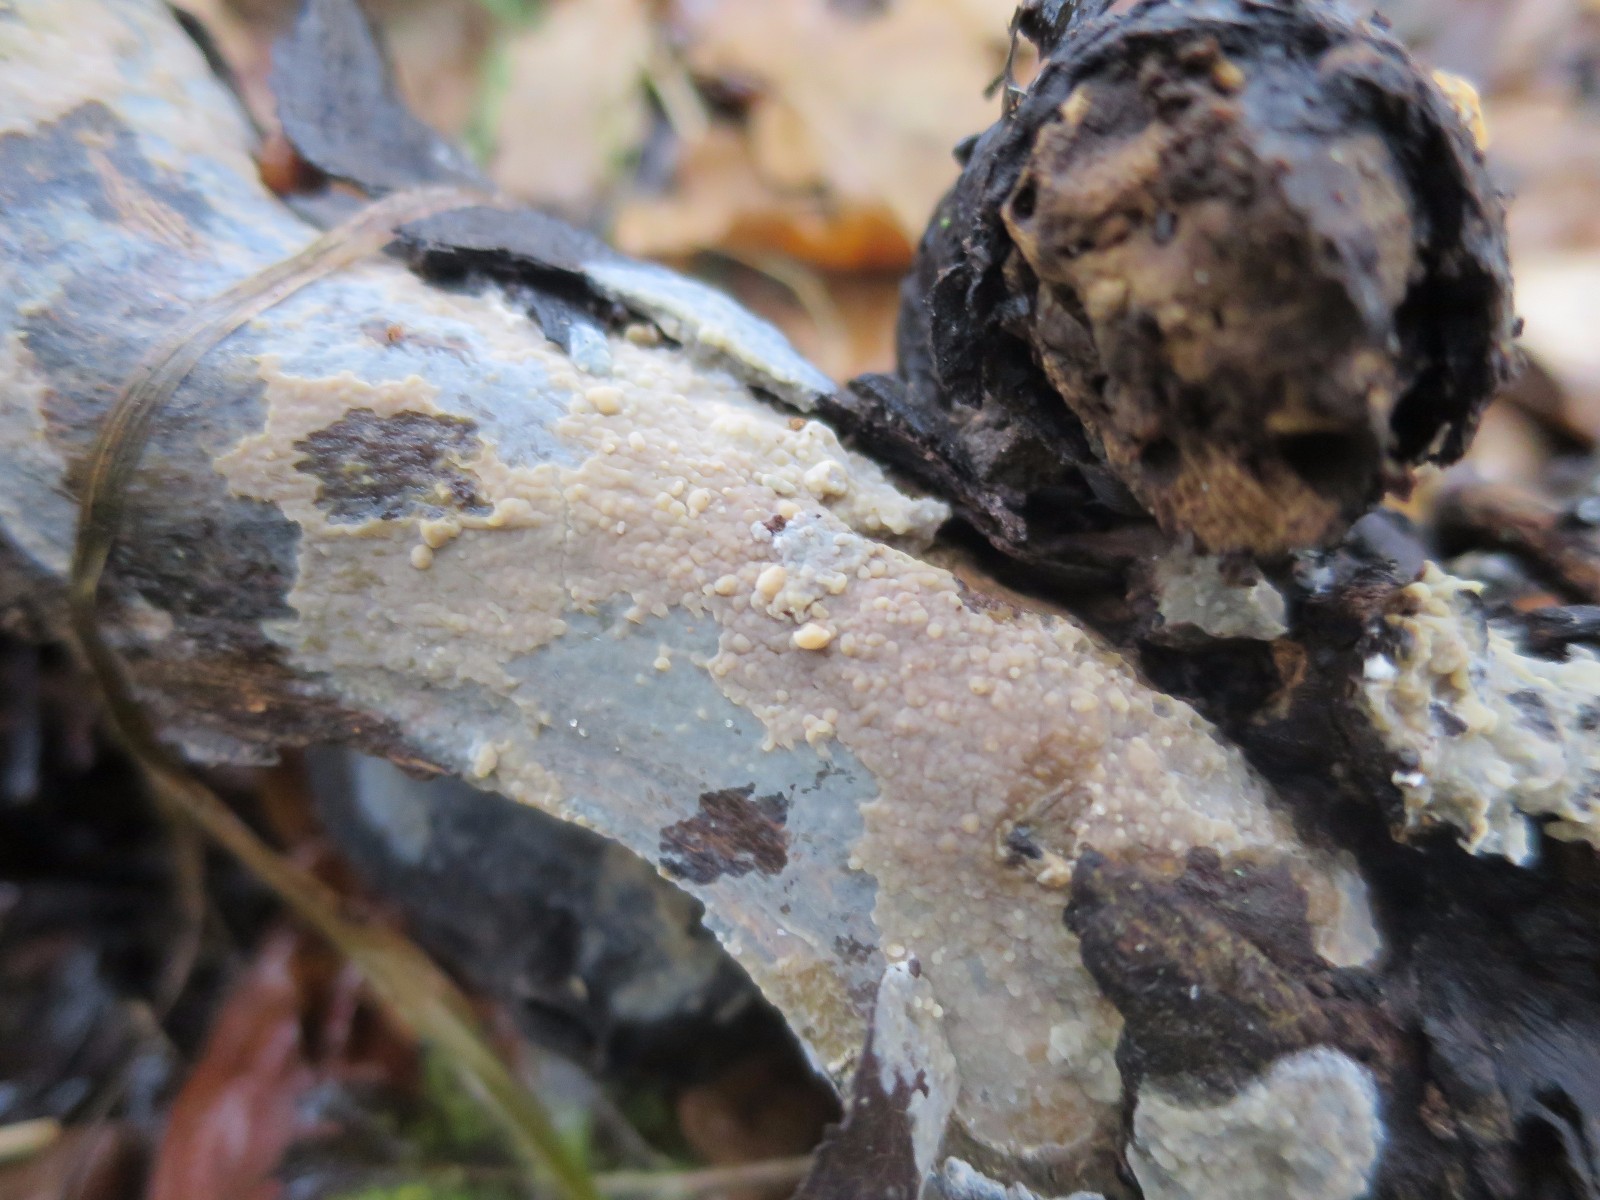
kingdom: Fungi
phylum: Basidiomycota
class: Agaricomycetes
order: Agaricales
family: Radulomycetaceae
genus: Radulomyces
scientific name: Radulomyces confluens
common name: glat naftalinskind
